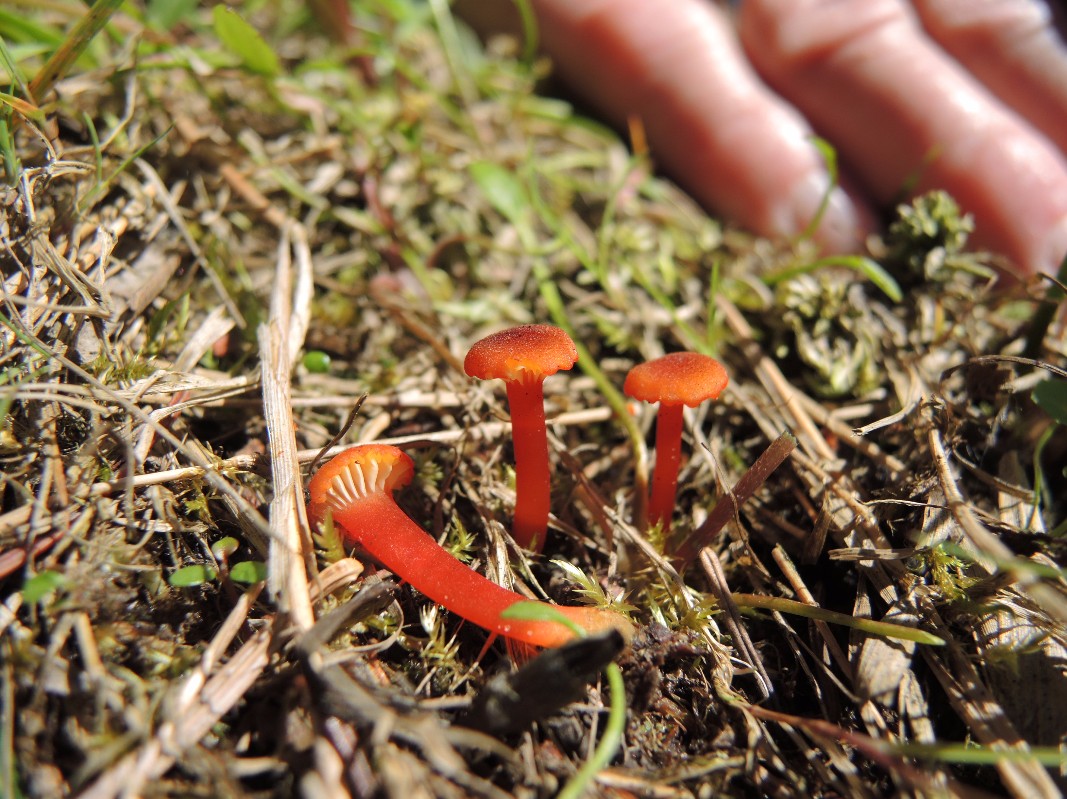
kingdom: Fungi
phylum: Basidiomycota
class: Agaricomycetes
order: Agaricales
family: Hygrophoraceae
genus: Hygrocybe
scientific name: Hygrocybe coccineocrenata
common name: tørvemos-vokshat
